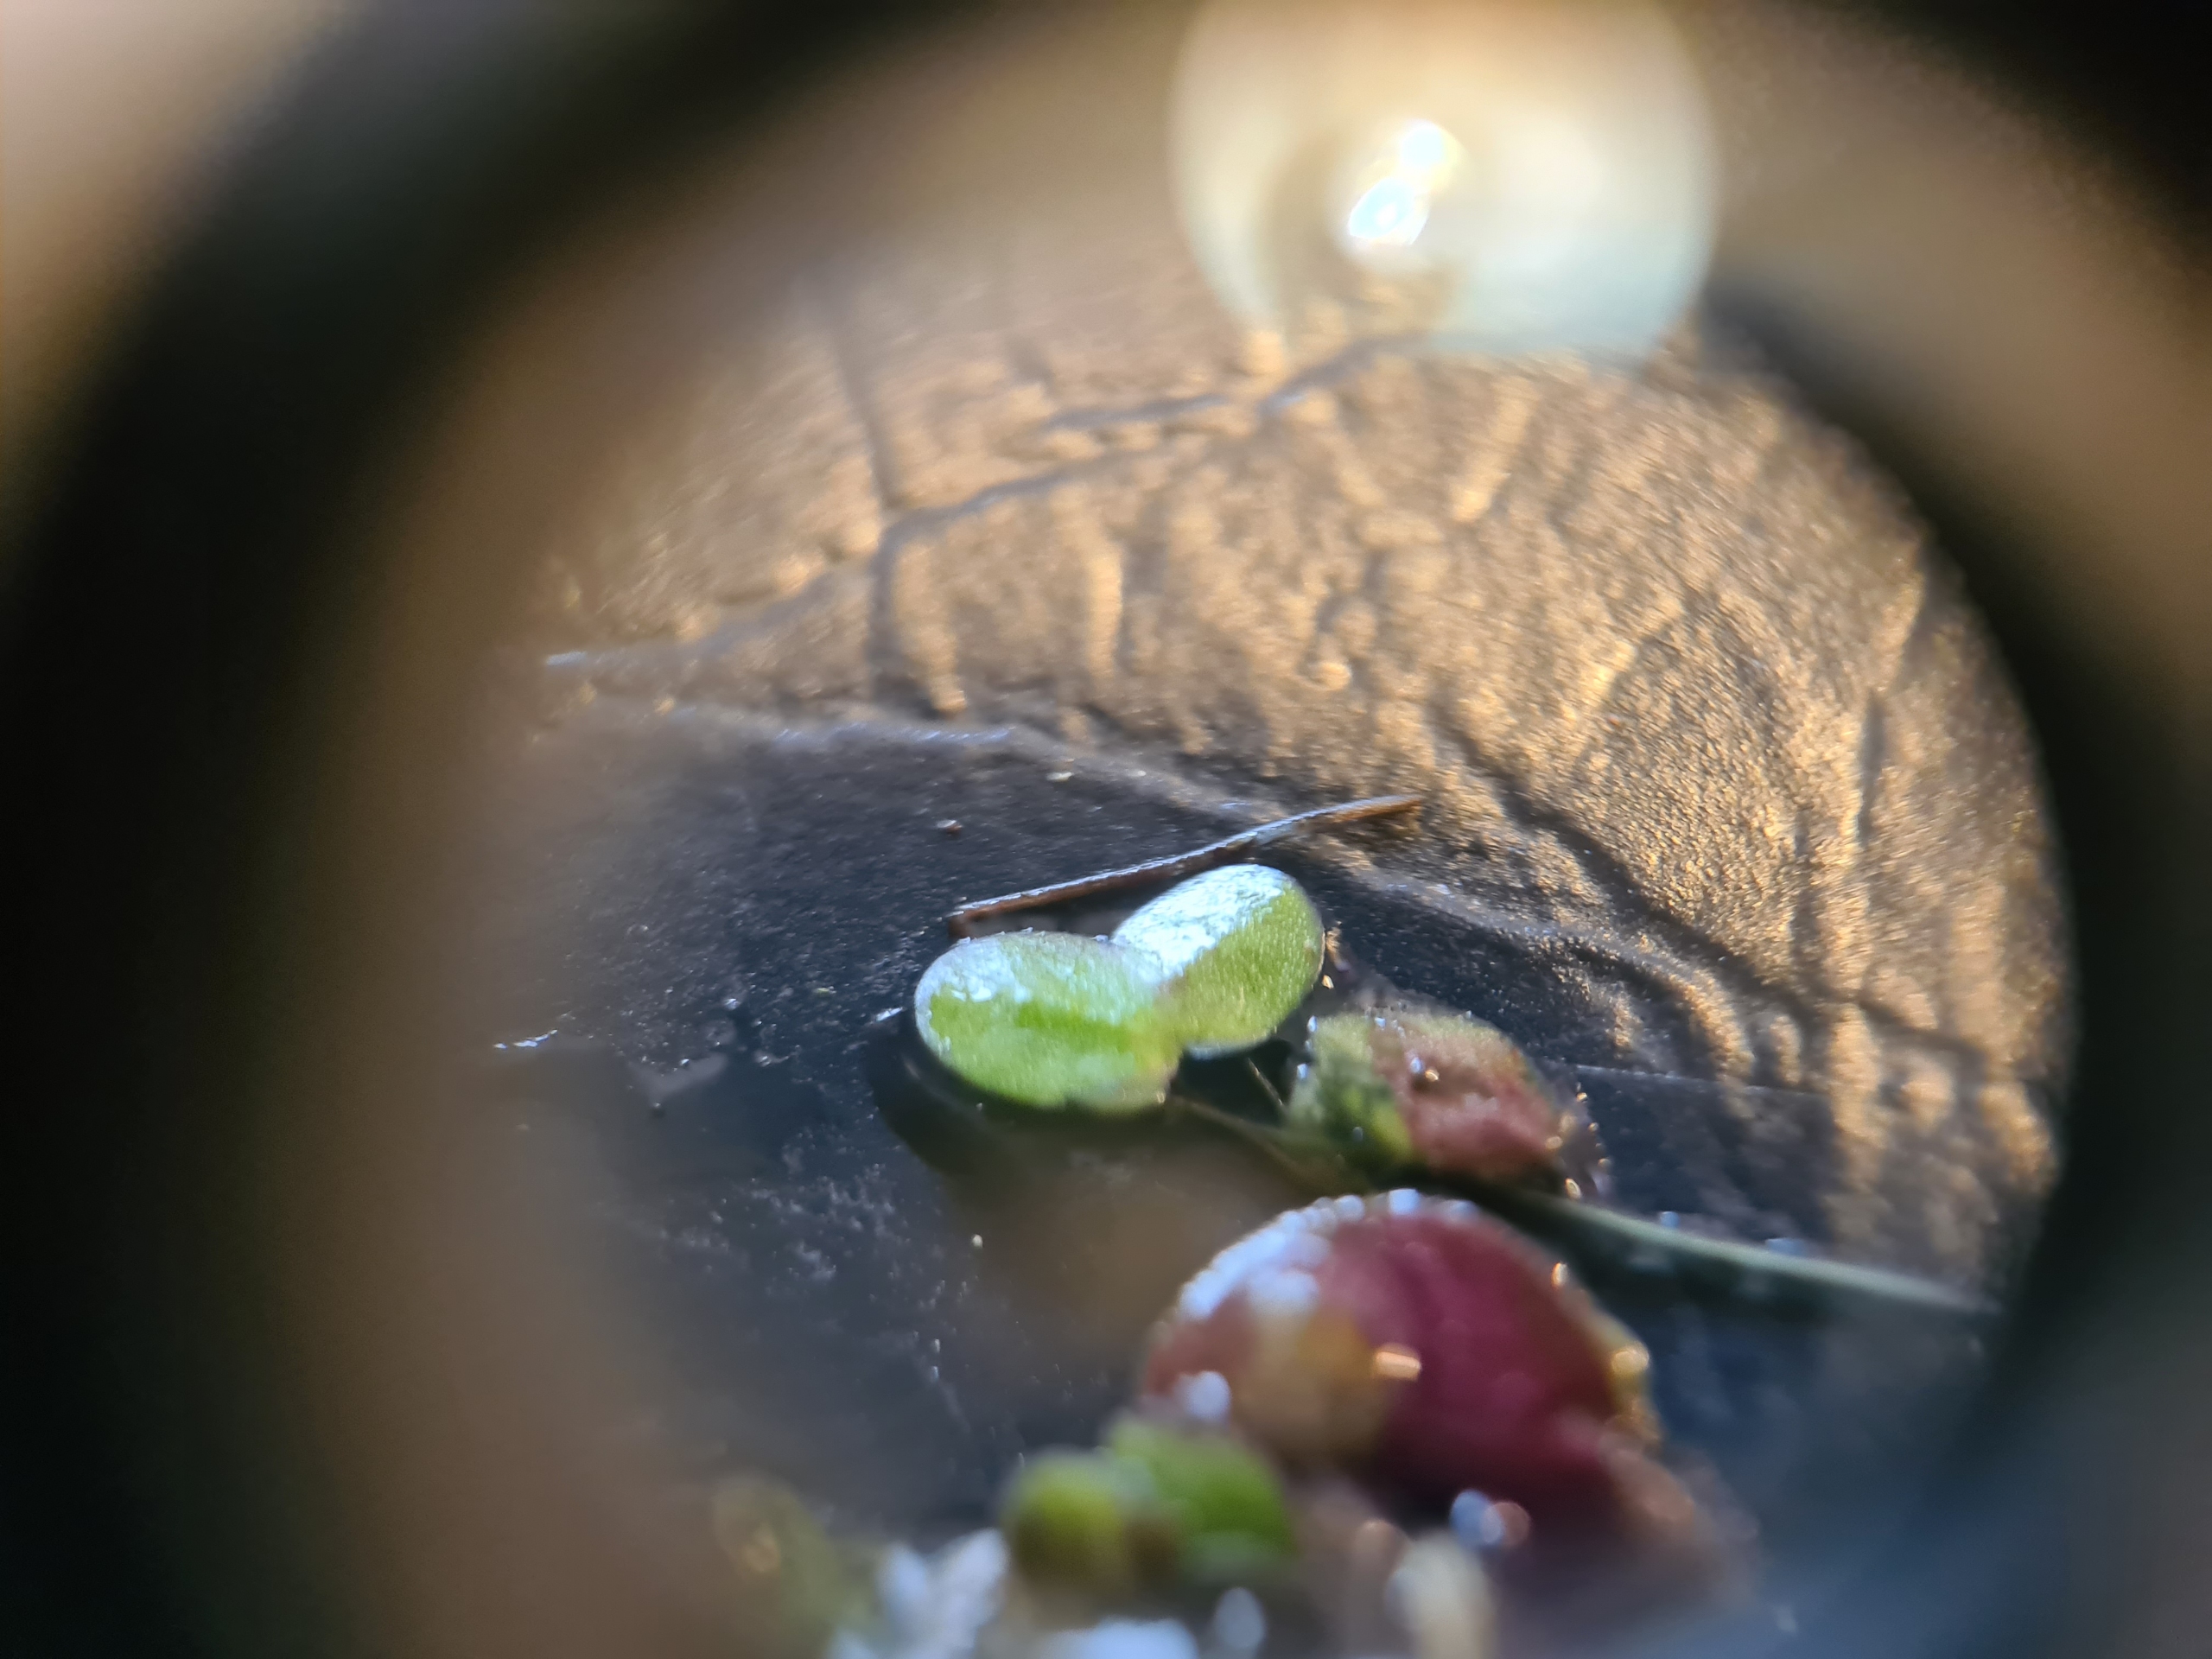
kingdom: Plantae
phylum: Tracheophyta
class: Liliopsida
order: Alismatales
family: Araceae
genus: Lemna
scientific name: Lemna turionifera
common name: Rød andemad
